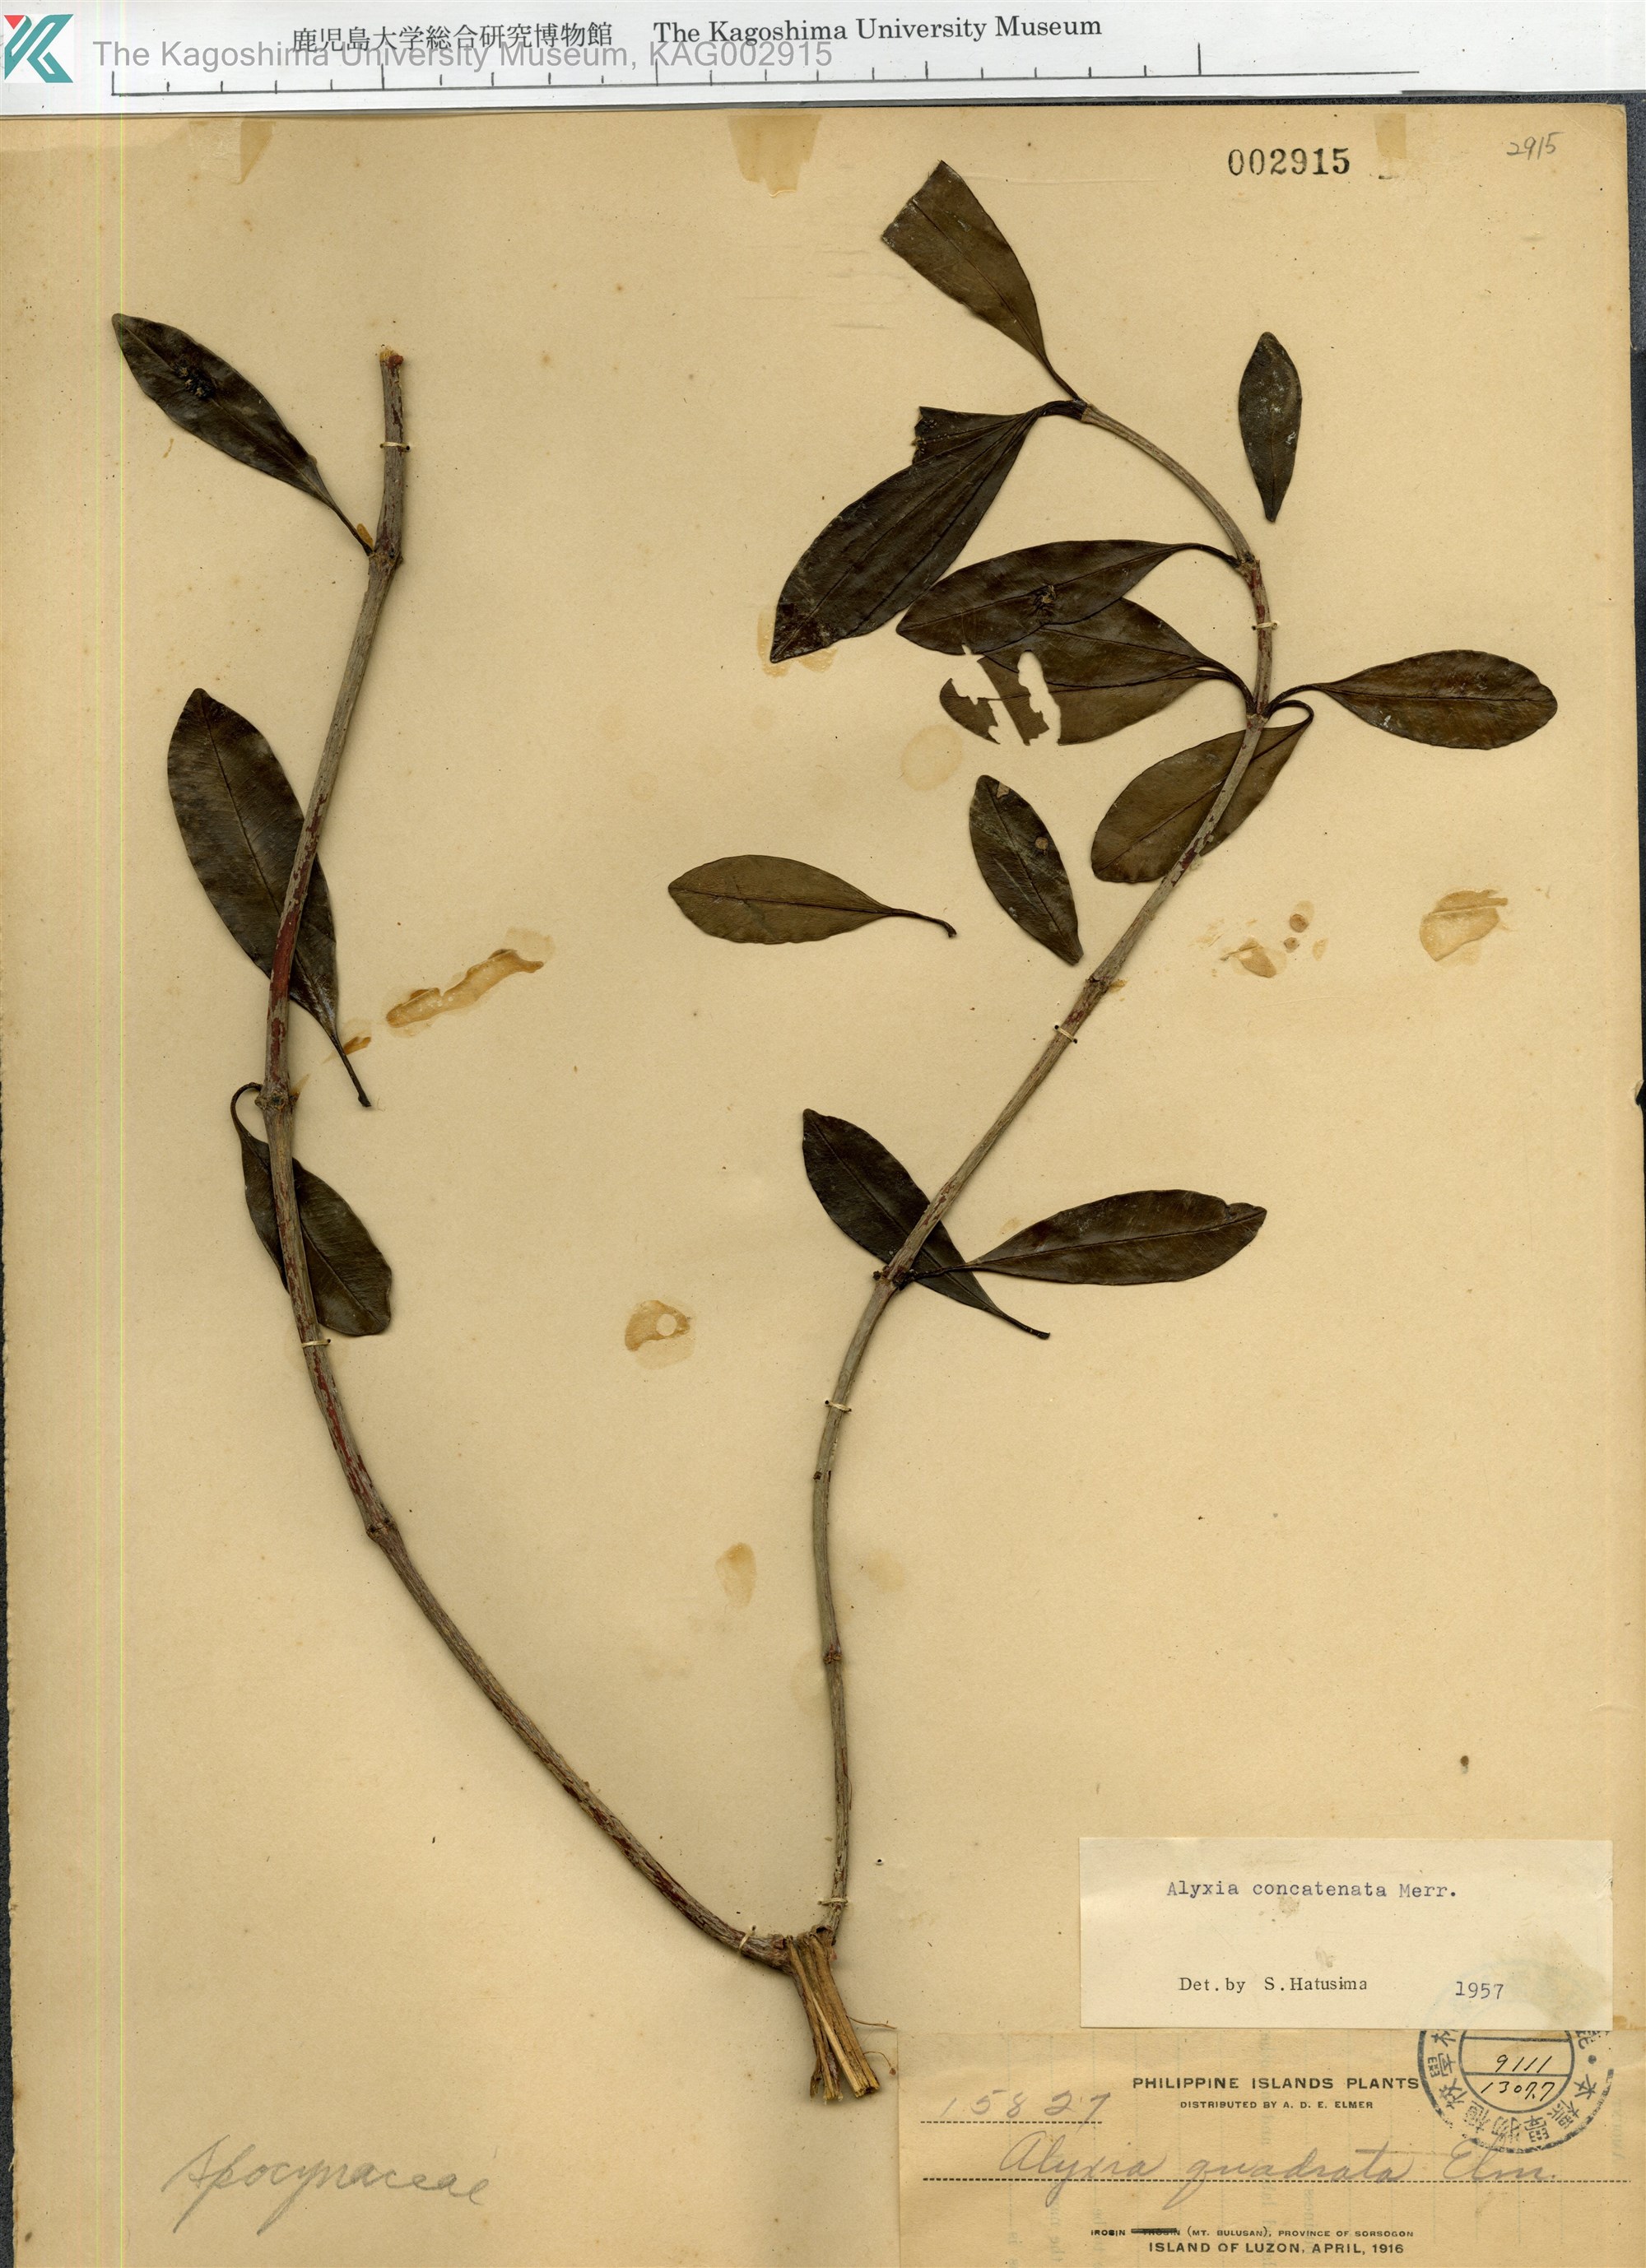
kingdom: Plantae
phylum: Tracheophyta
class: Magnoliopsida
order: Gentianales
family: Apocynaceae
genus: Alyxia
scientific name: Alyxia concatenata
